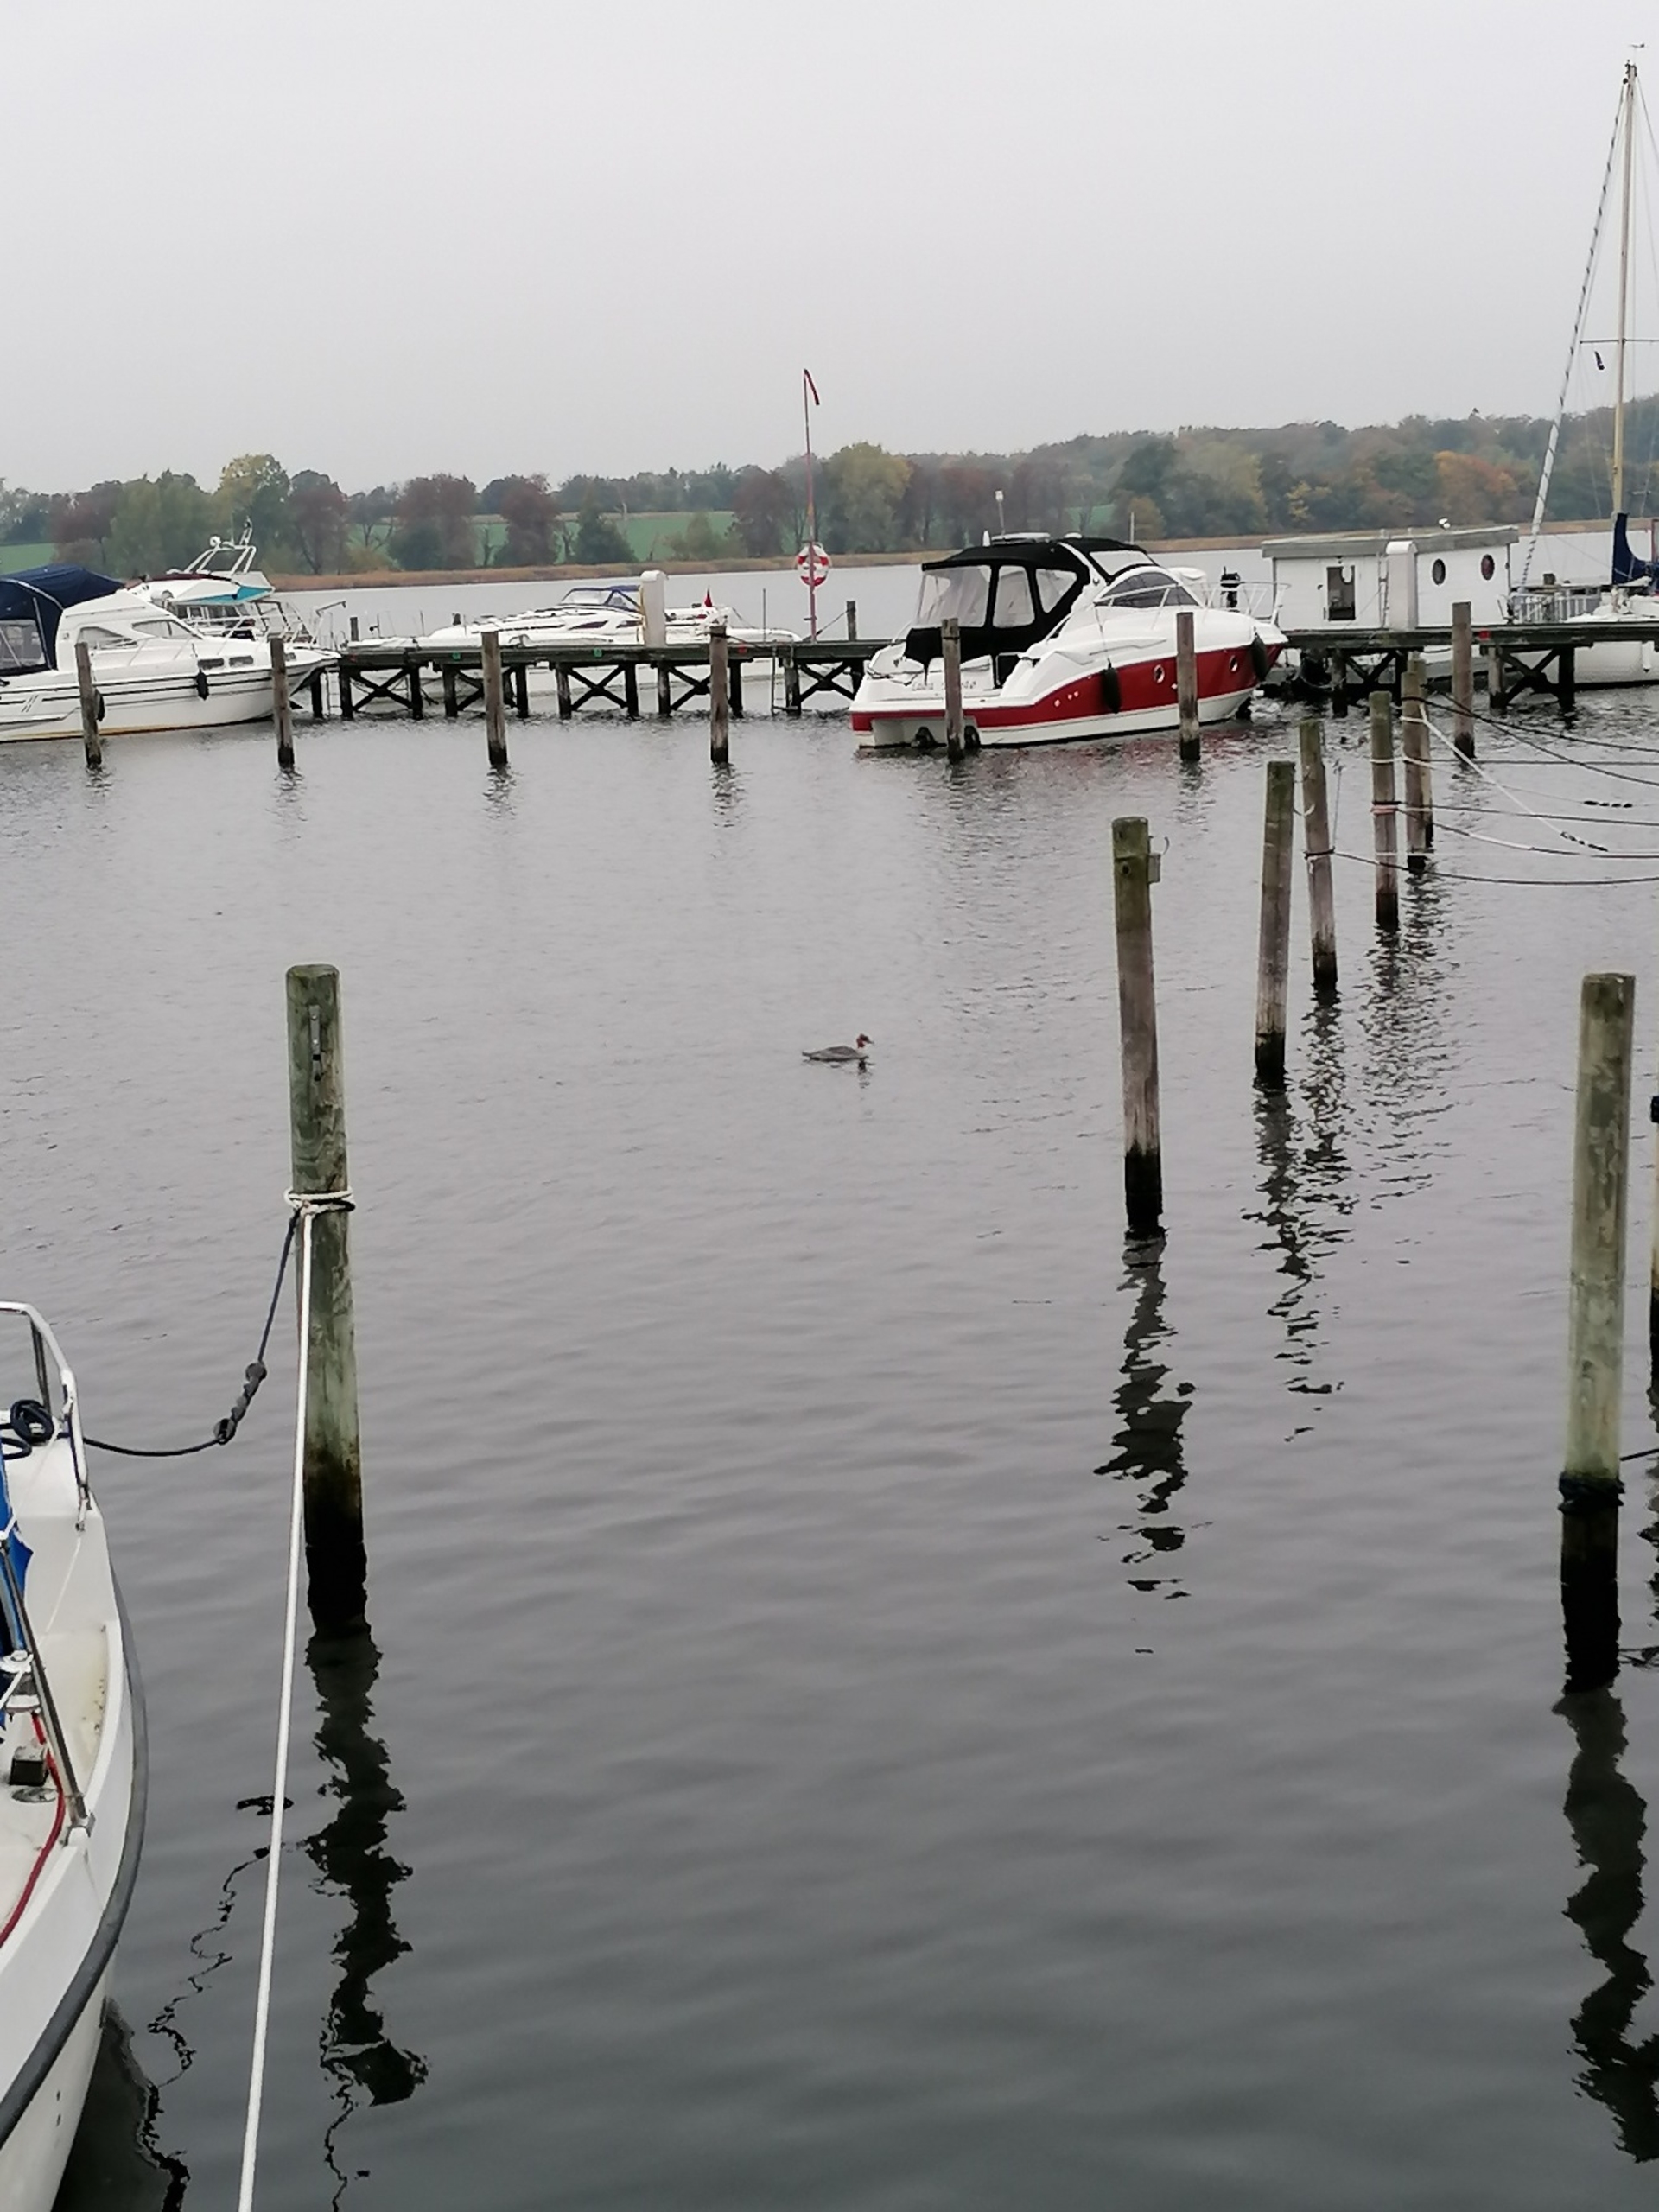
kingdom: Animalia
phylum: Chordata
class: Aves
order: Anseriformes
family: Anatidae
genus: Mergus
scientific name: Mergus merganser
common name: Stor skallesluger
